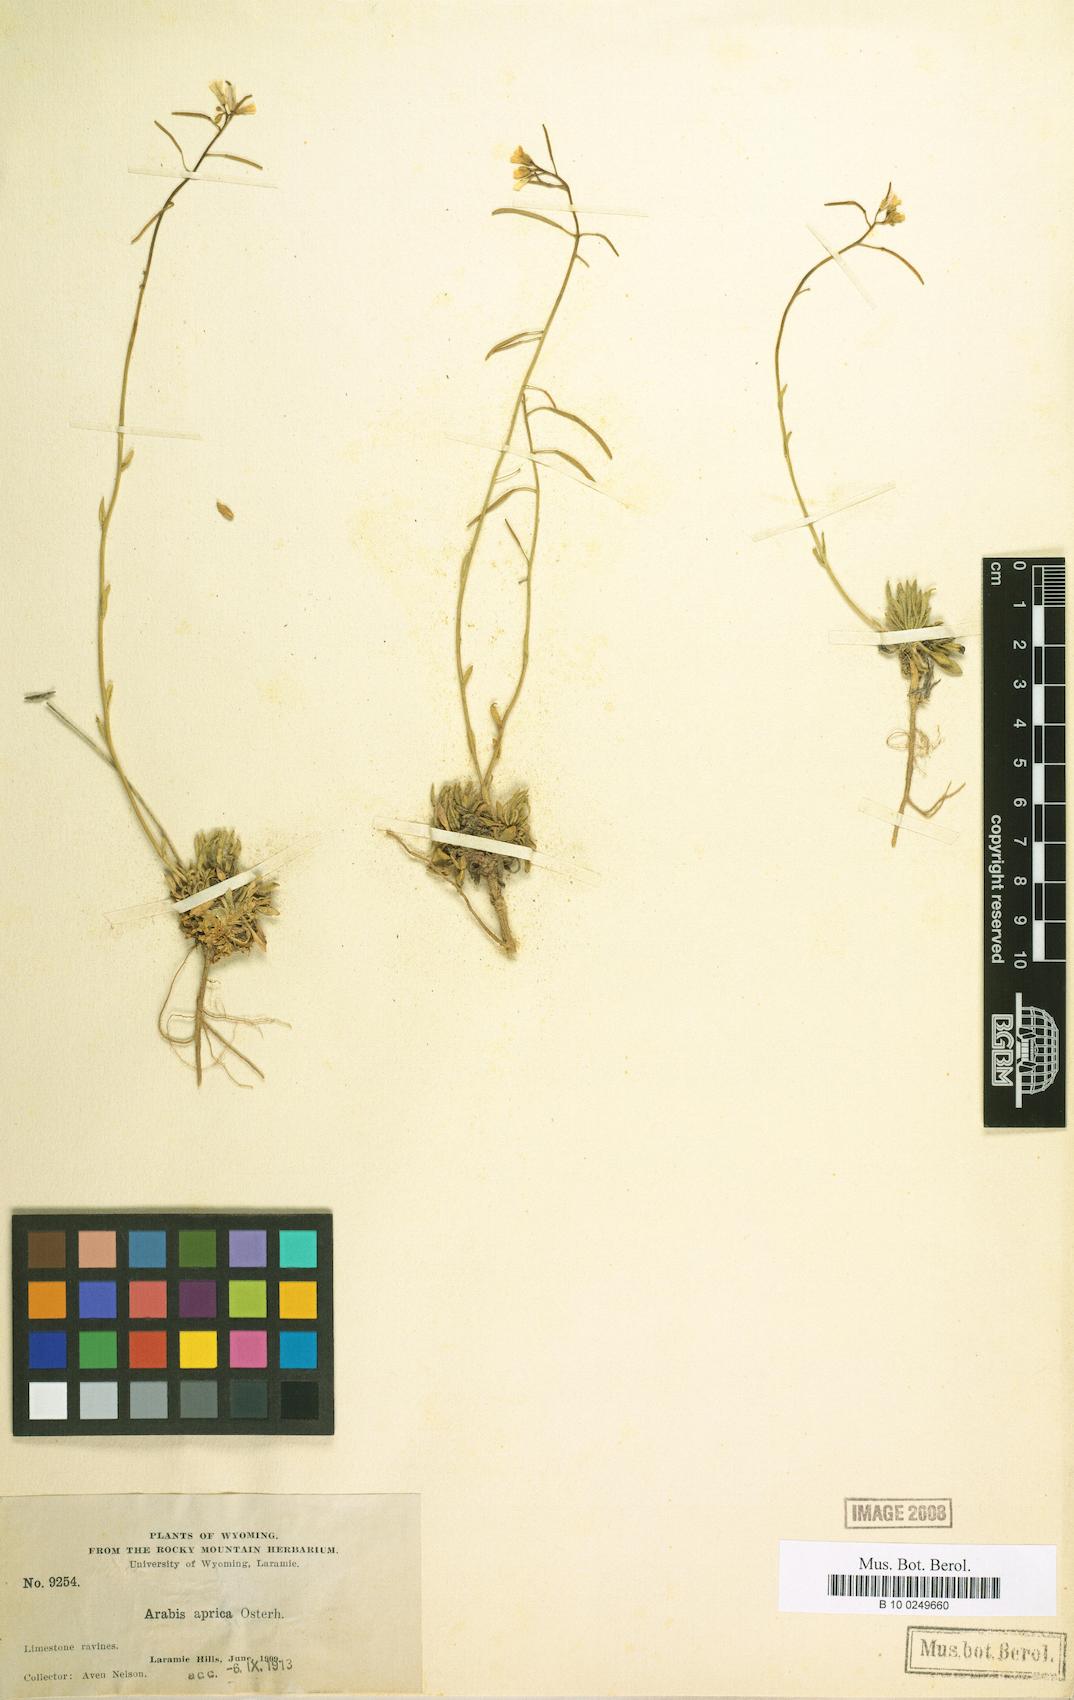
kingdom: Plantae
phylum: Tracheophyta
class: Magnoliopsida
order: Brassicales
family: Brassicaceae
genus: Arabis
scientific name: Arabis aprica
